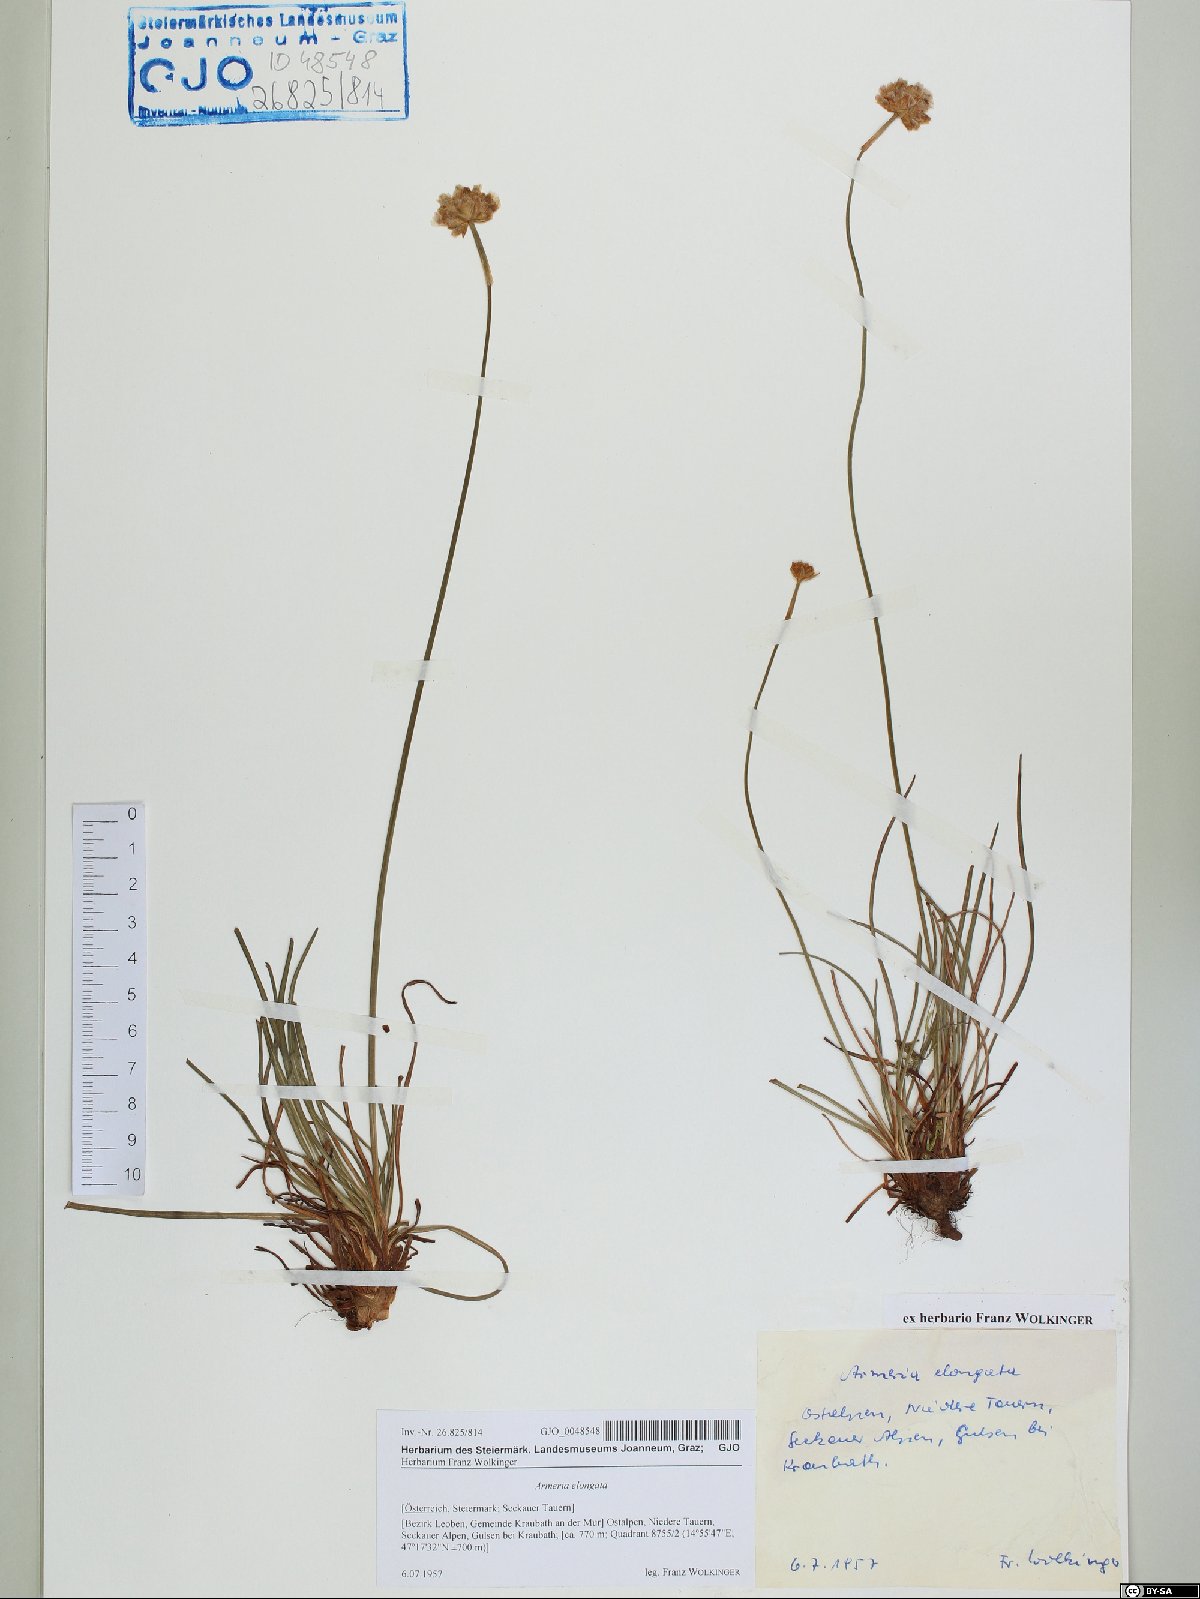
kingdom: Plantae
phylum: Tracheophyta
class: Magnoliopsida
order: Caryophyllales
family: Plumbaginaceae
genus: Armeria
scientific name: Armeria maritima
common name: Thrift
